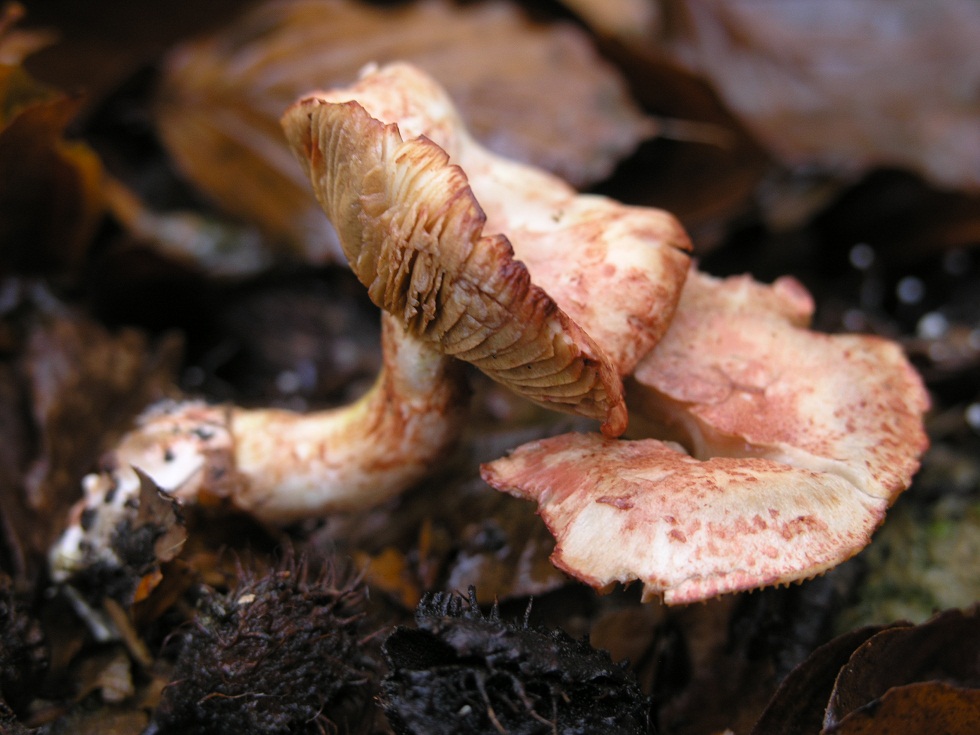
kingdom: Fungi
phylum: Basidiomycota
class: Agaricomycetes
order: Agaricales
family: Cortinariaceae
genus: Cortinarius
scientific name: Cortinarius bolaris
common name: cinnoberskællet slørhat
